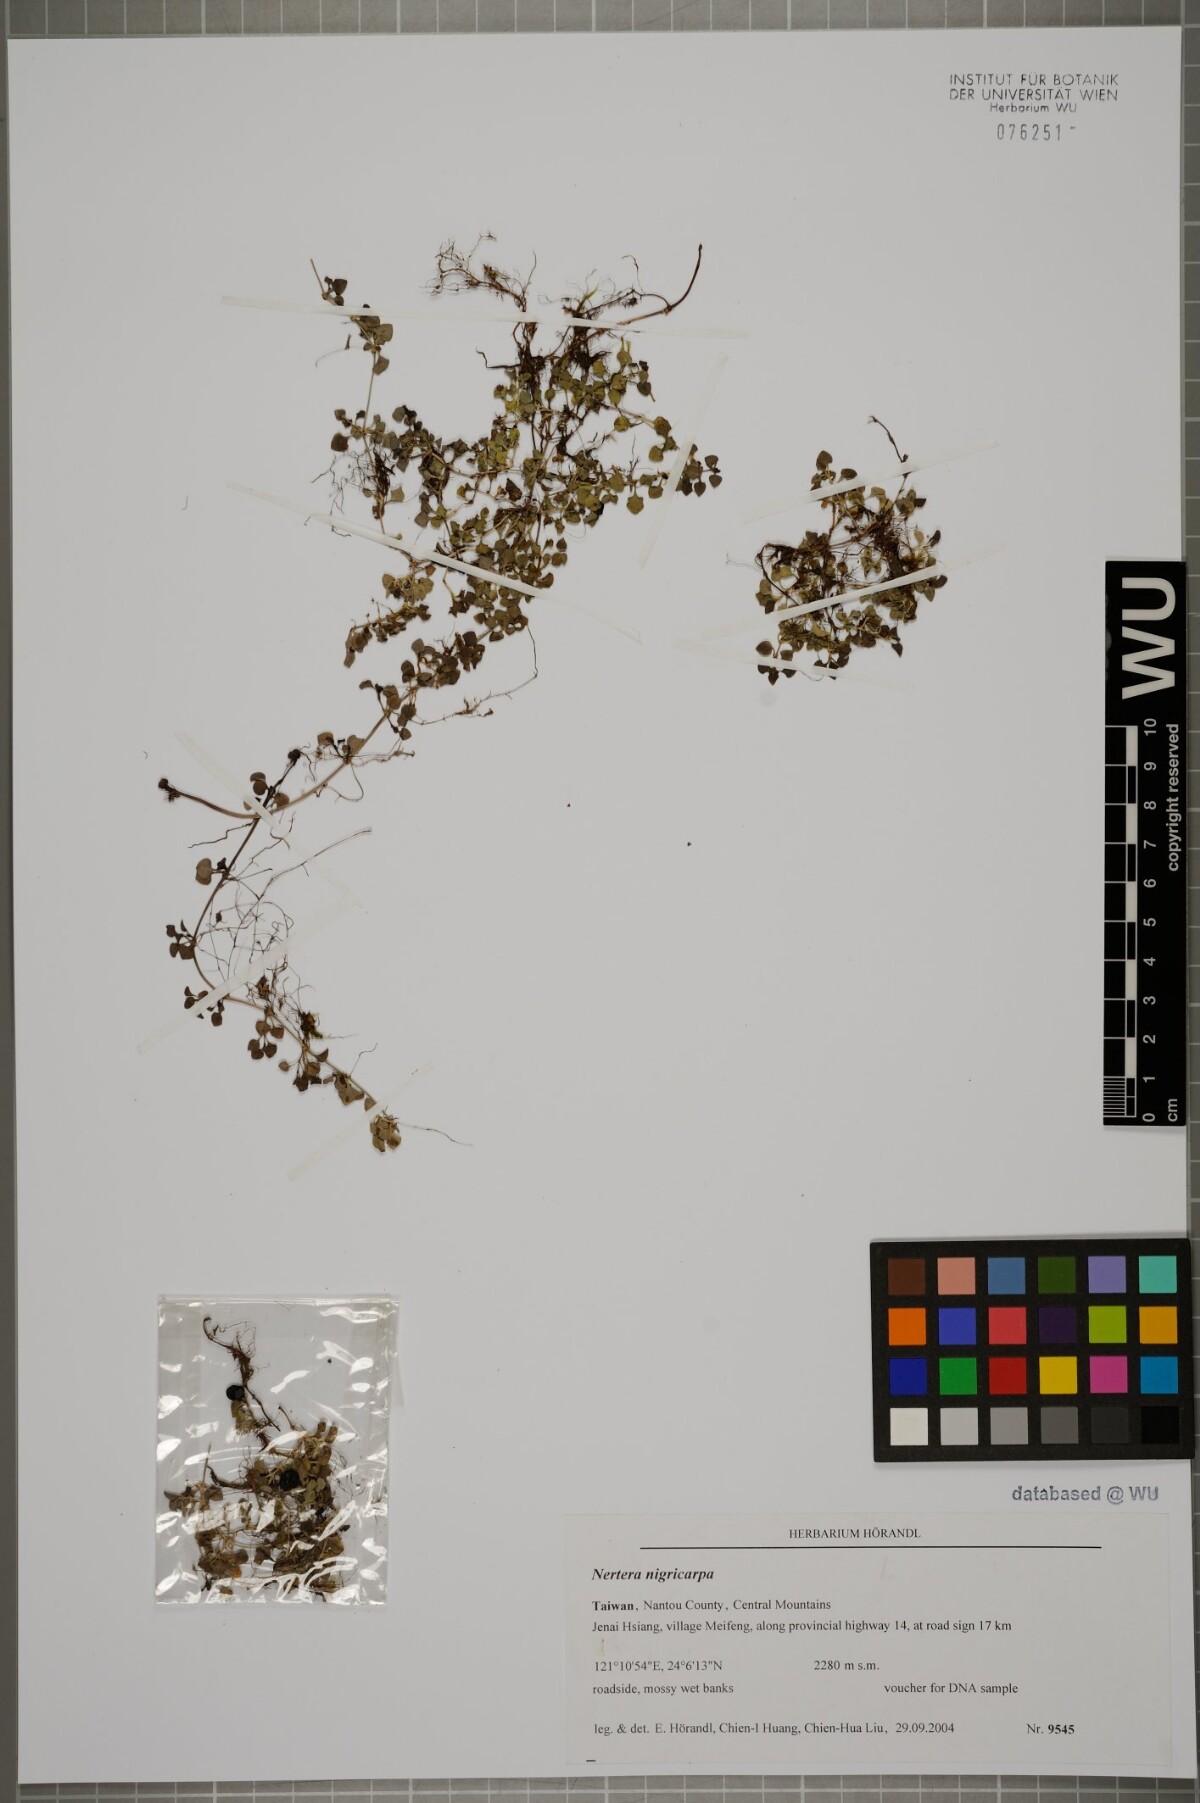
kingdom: Plantae
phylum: Tracheophyta
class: Magnoliopsida
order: Gentianales
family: Rubiaceae
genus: Nertera
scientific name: Nertera nigricarpa
